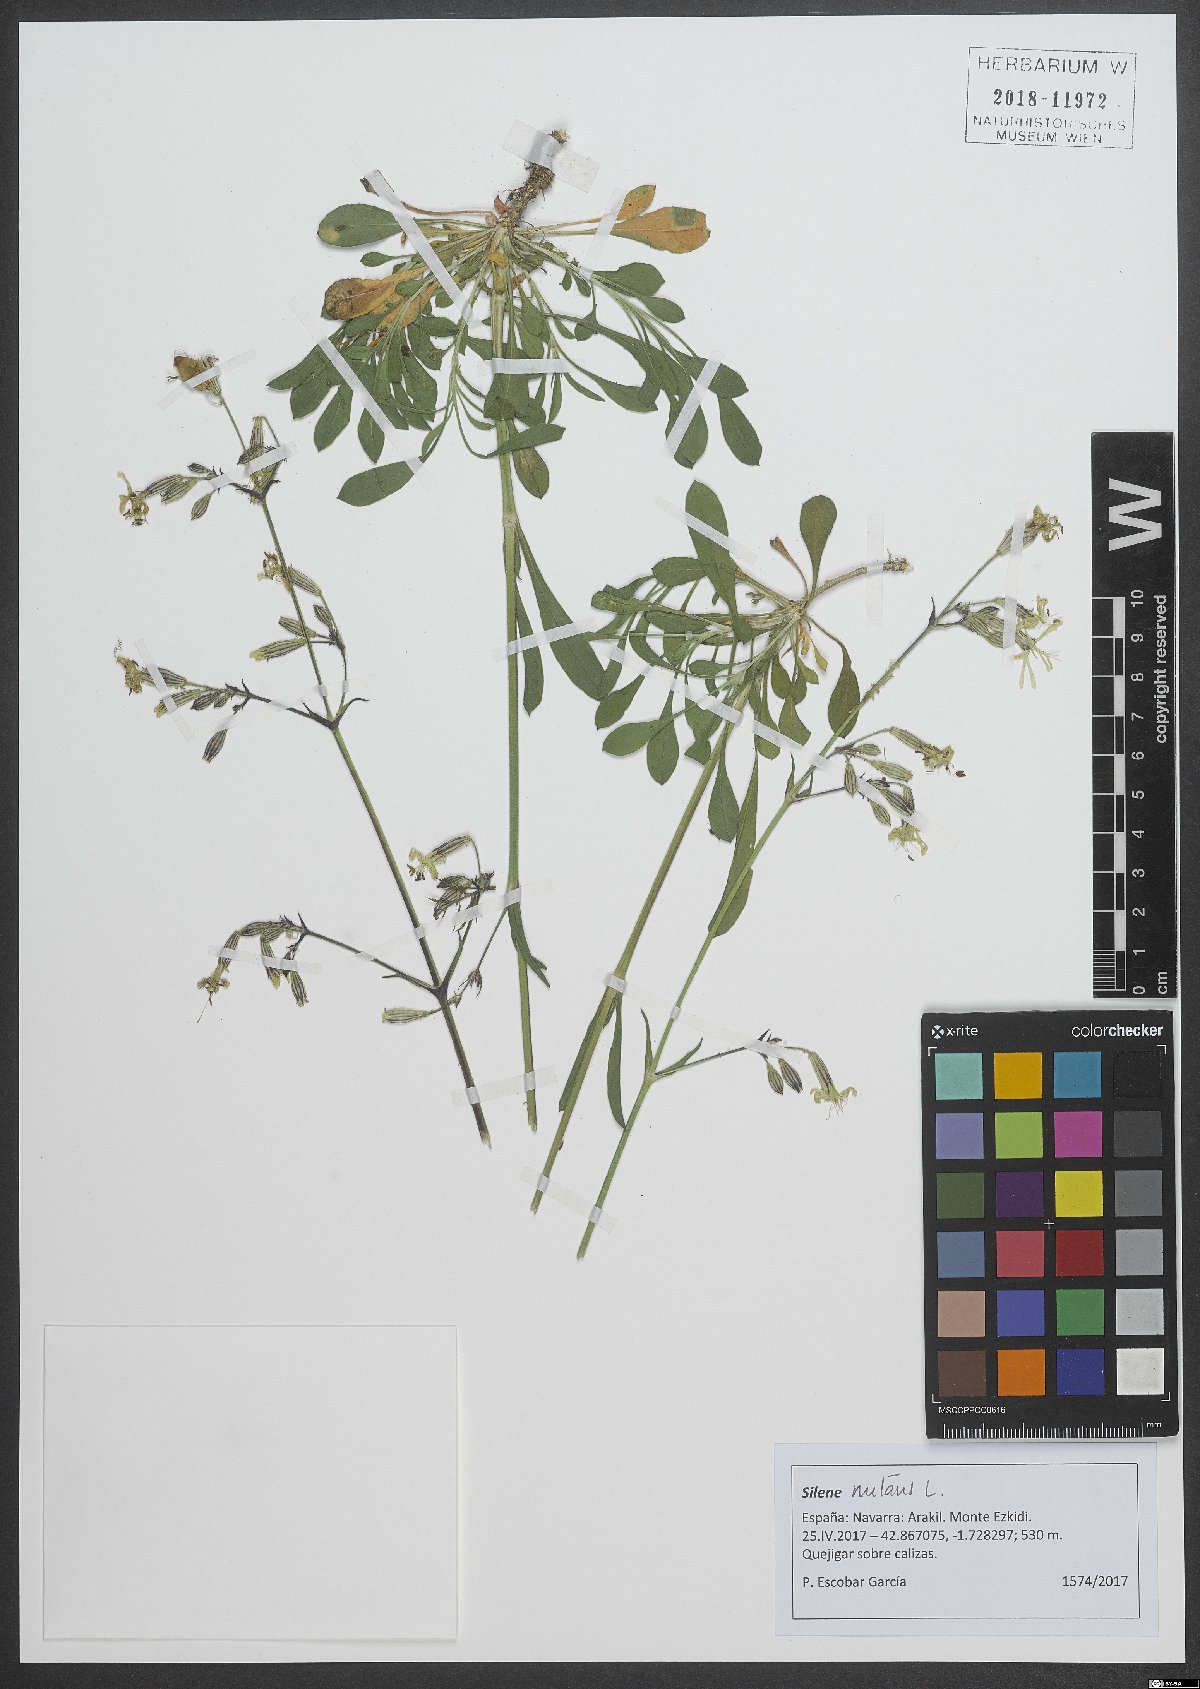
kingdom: Plantae
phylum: Tracheophyta
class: Magnoliopsida
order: Caryophyllales
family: Caryophyllaceae
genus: Silene
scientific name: Silene nutans
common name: Nottingham catchfly
